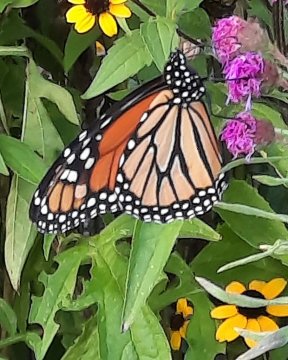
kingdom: Animalia
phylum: Arthropoda
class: Insecta
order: Lepidoptera
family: Nymphalidae
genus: Danaus
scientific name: Danaus plexippus
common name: Monarch
